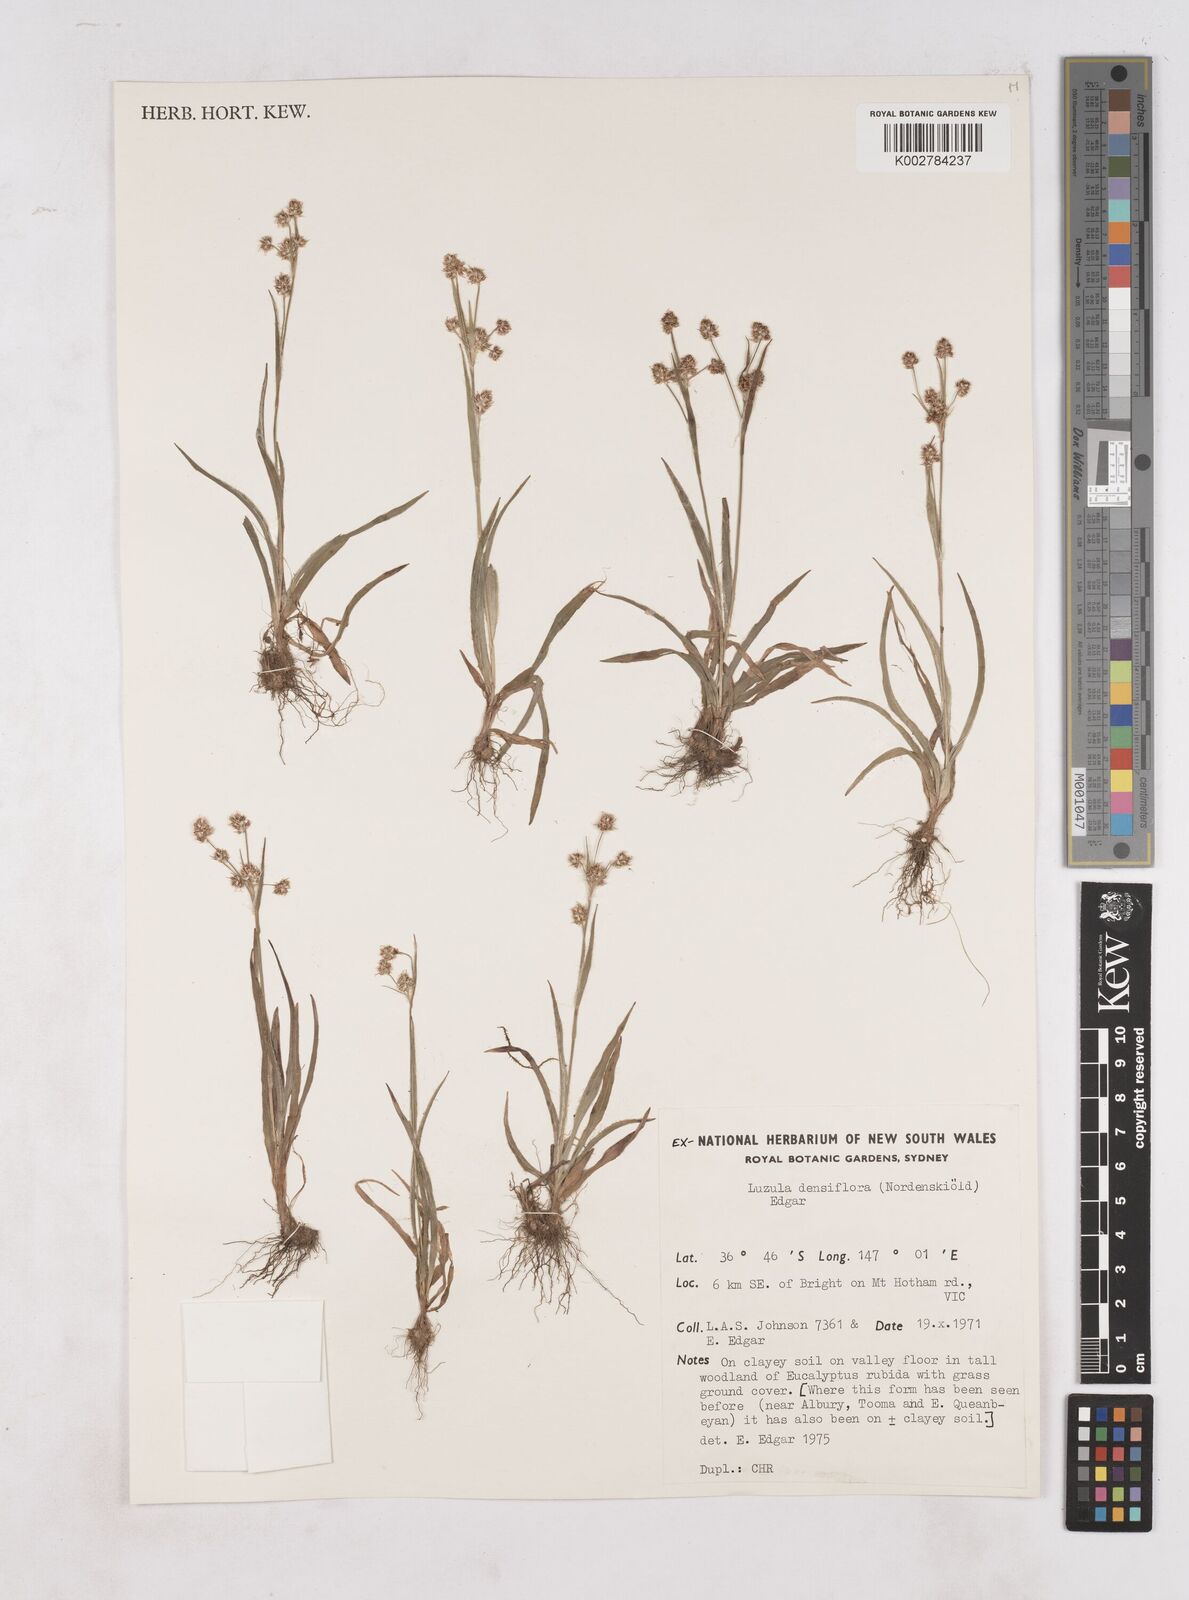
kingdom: Plantae
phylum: Tracheophyta
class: Liliopsida
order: Poales
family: Juncaceae
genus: Luzula
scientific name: Luzula densiflora
